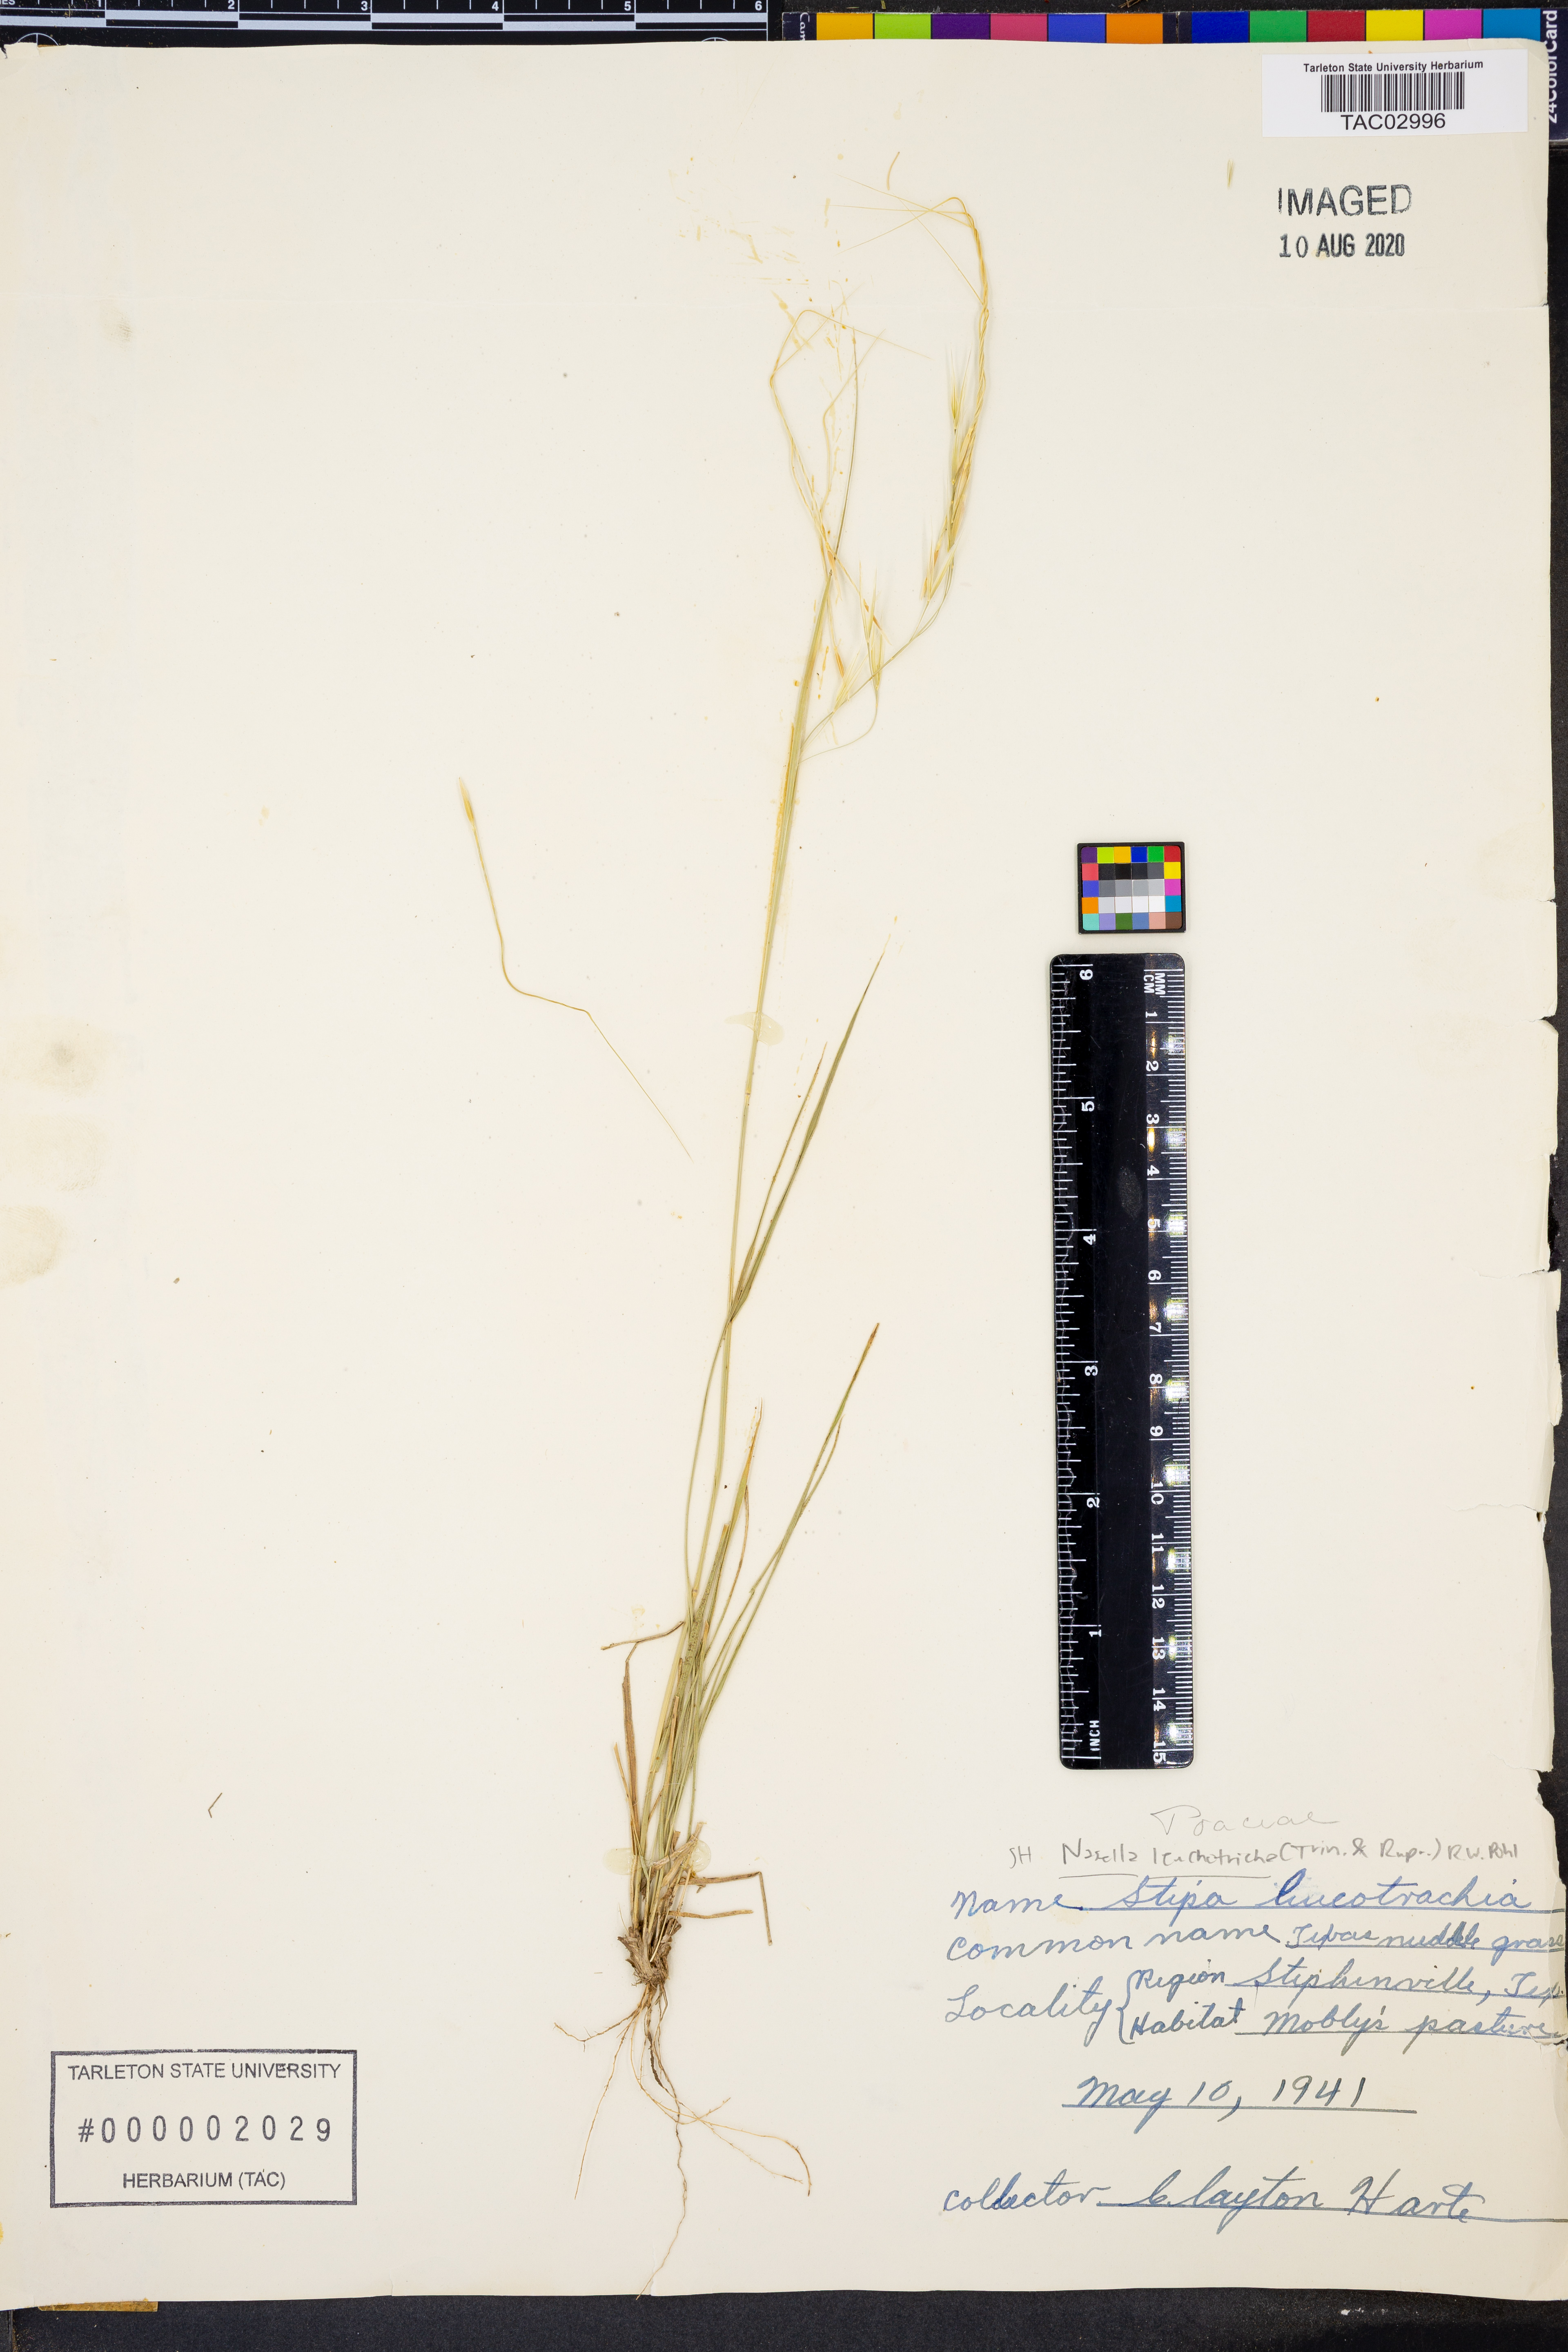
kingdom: Plantae
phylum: Tracheophyta
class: Liliopsida
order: Poales
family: Poaceae
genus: Nassella
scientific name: Nassella leucotricha
